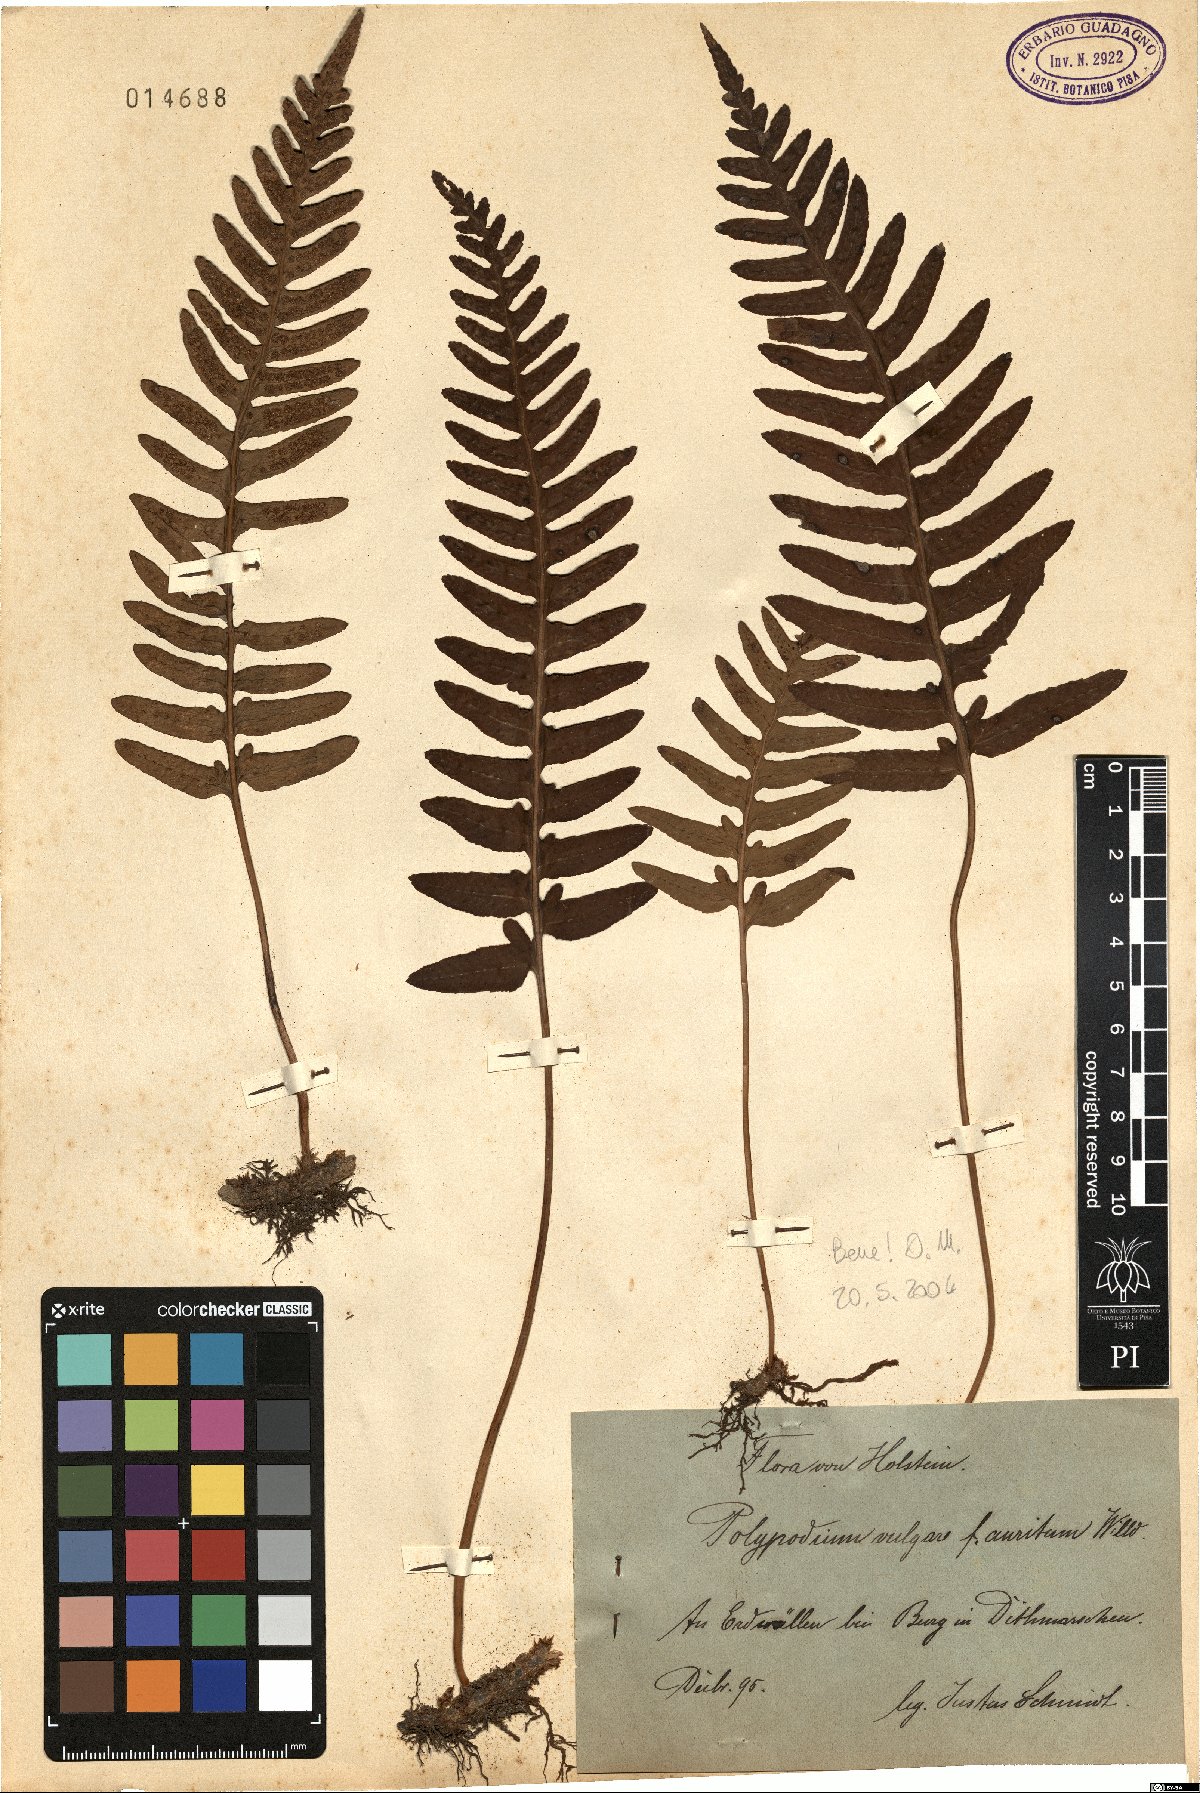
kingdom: Plantae
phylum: Tracheophyta
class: Polypodiopsida
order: Polypodiales
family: Polypodiaceae
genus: Polypodium
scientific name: Polypodium vulgare
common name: Common polypody
